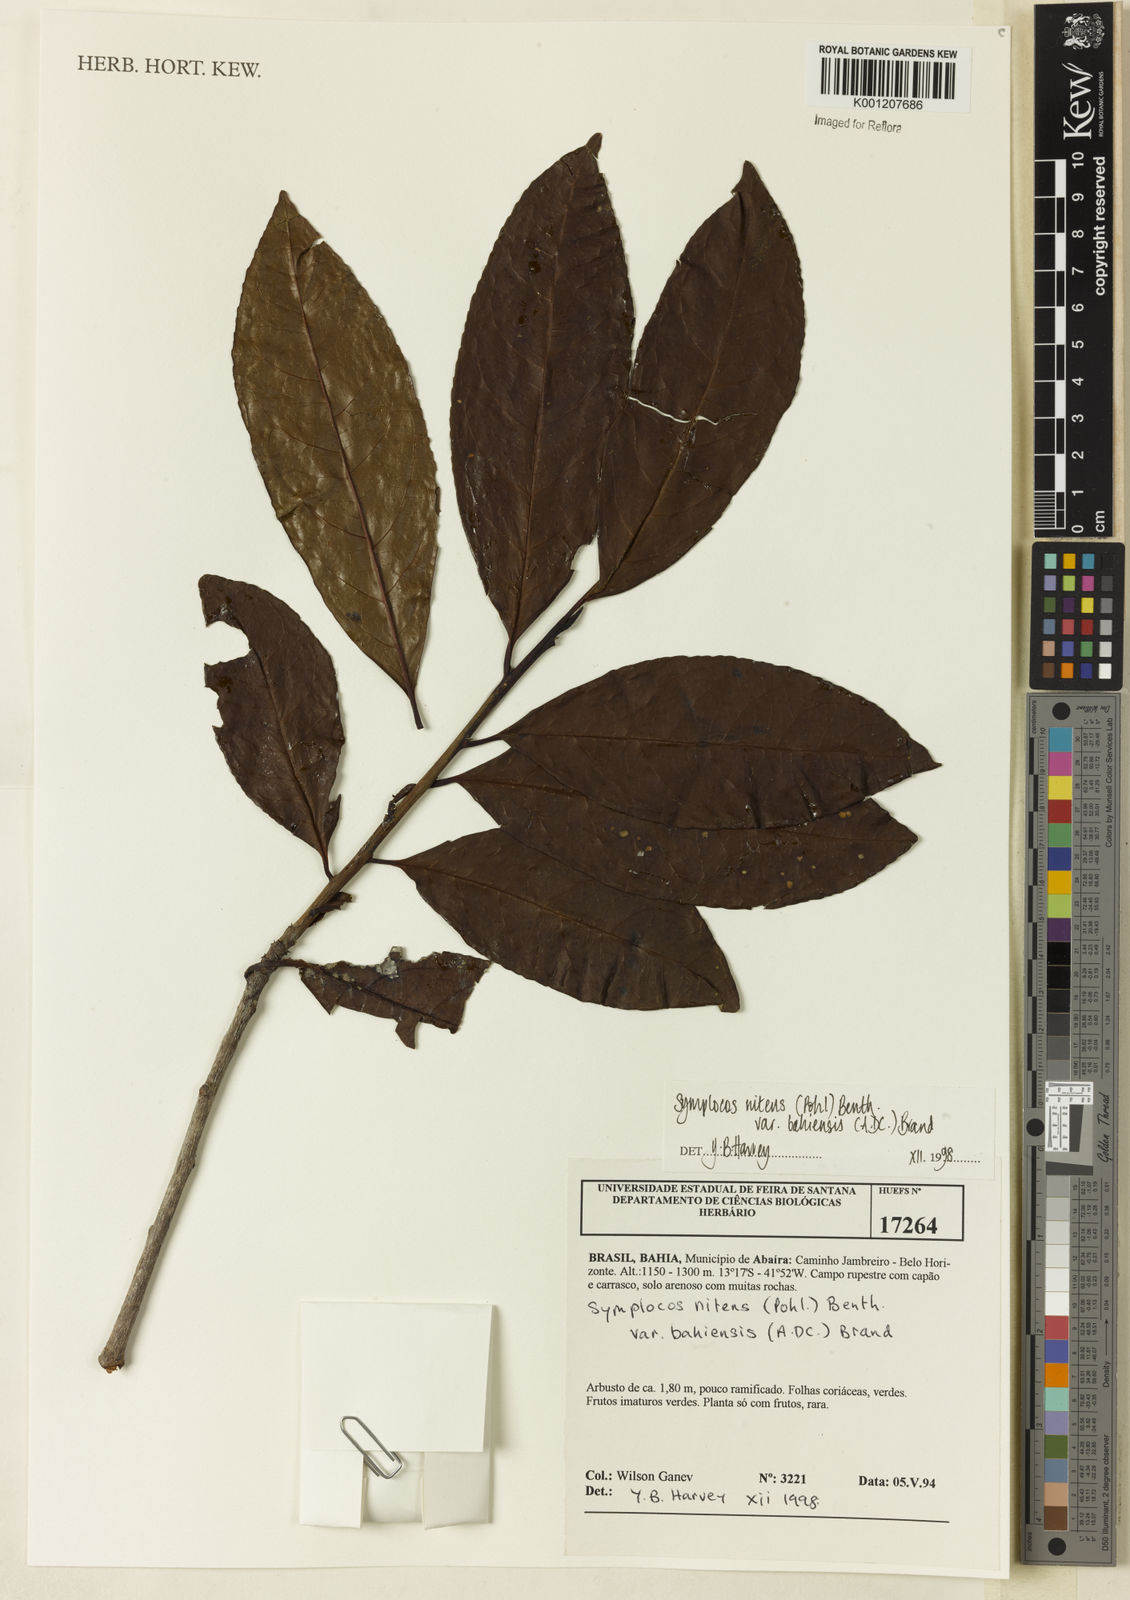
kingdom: Plantae
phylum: Tracheophyta
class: Magnoliopsida
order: Ericales
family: Symplocaceae
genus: Symplocos
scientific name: Symplocos nitens
